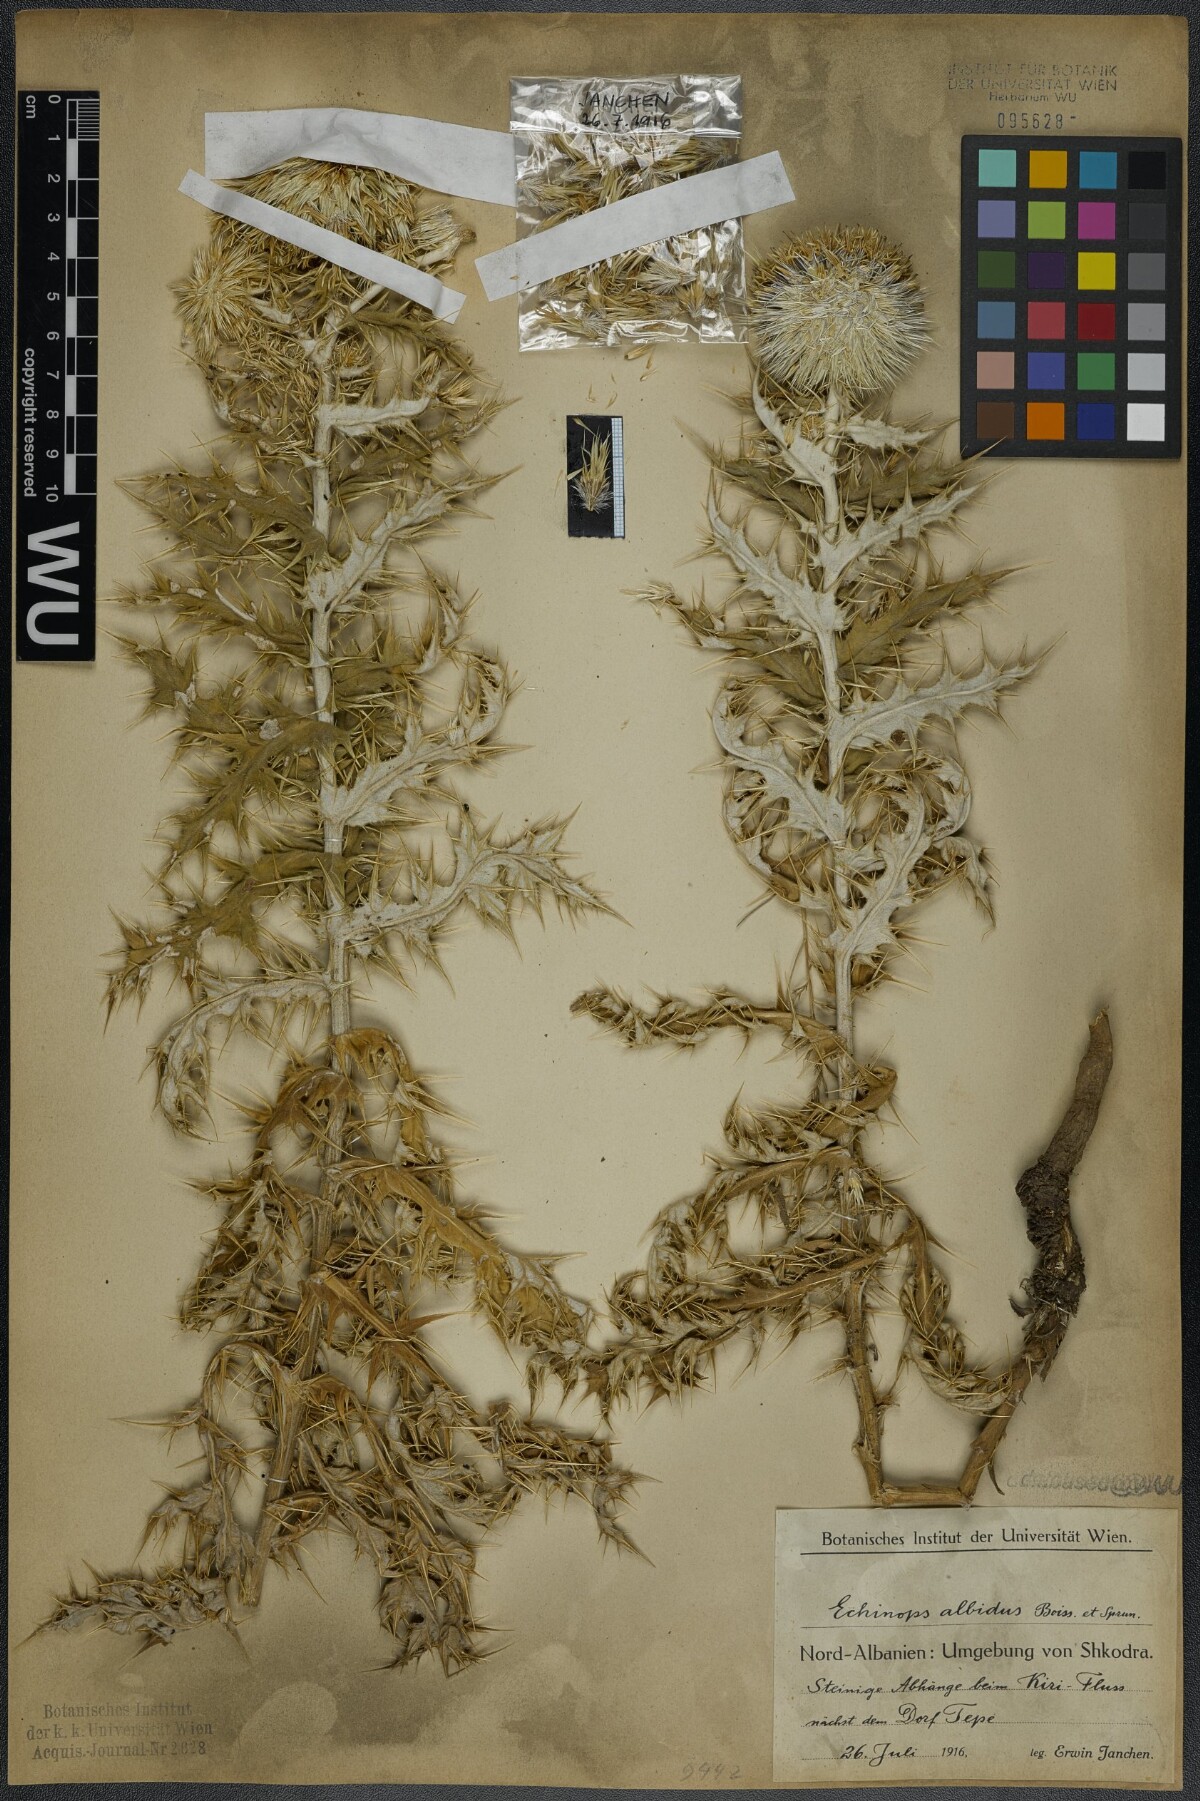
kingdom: Plantae
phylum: Tracheophyta
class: Magnoliopsida
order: Asterales
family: Asteraceae
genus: Echinops
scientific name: Echinops sphaerocephalus
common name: Glandular globe-thistle
